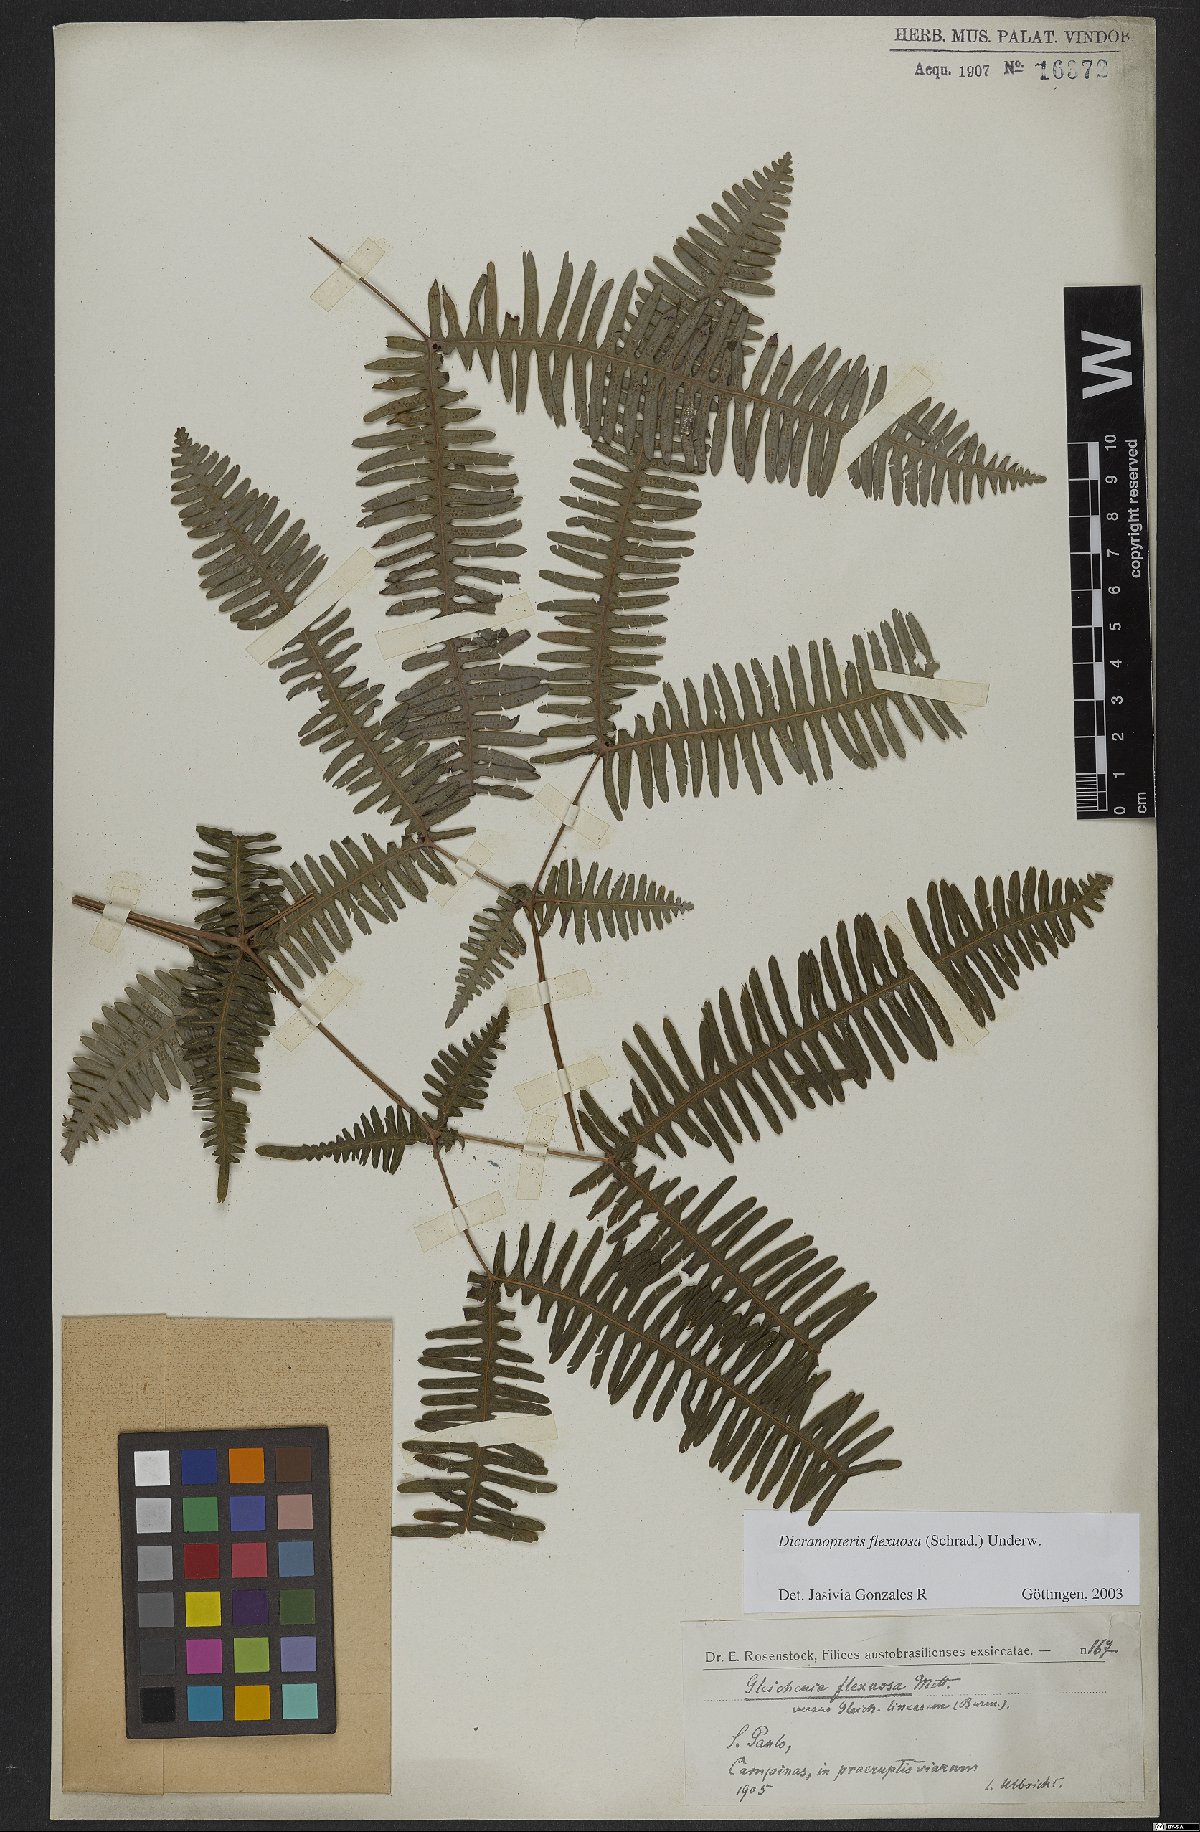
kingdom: Plantae
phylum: Tracheophyta
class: Polypodiopsida
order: Gleicheniales
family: Gleicheniaceae
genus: Dicranopteris
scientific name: Dicranopteris flexuosa
